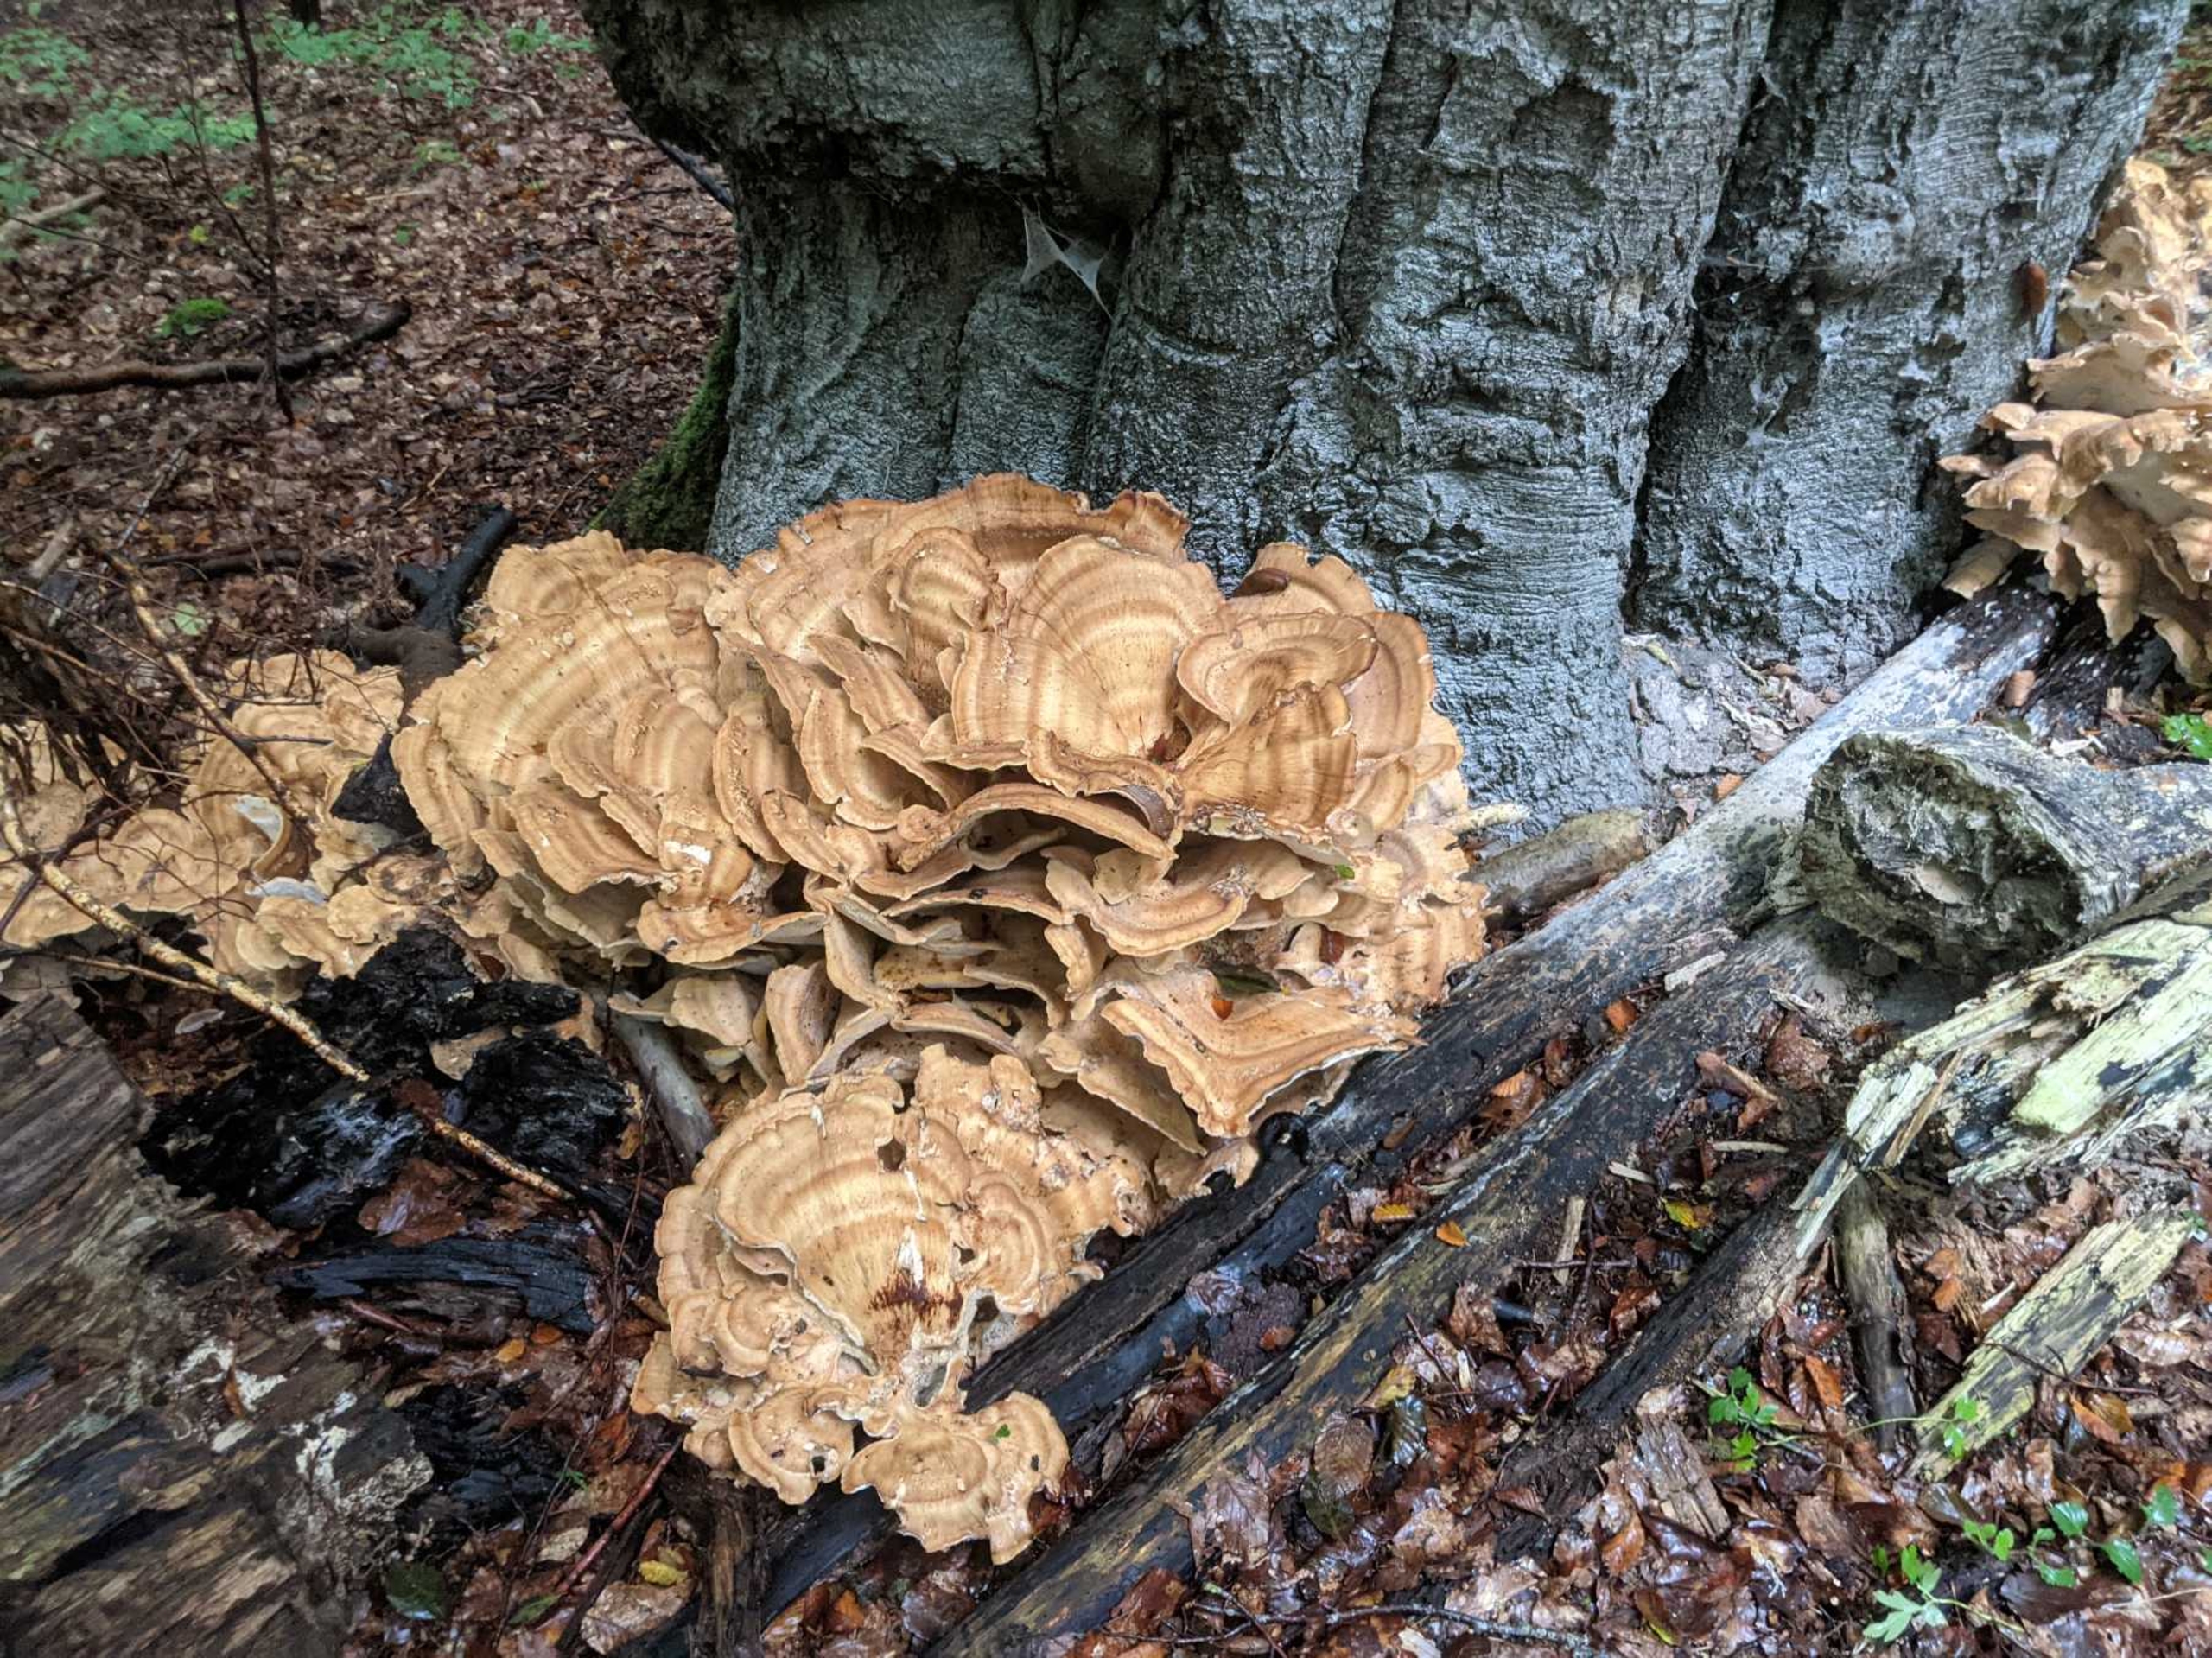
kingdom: Fungi
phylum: Basidiomycota
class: Agaricomycetes
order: Polyporales
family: Meripilaceae
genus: Meripilus
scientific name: Meripilus giganteus
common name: Kæmpeporesvamp
